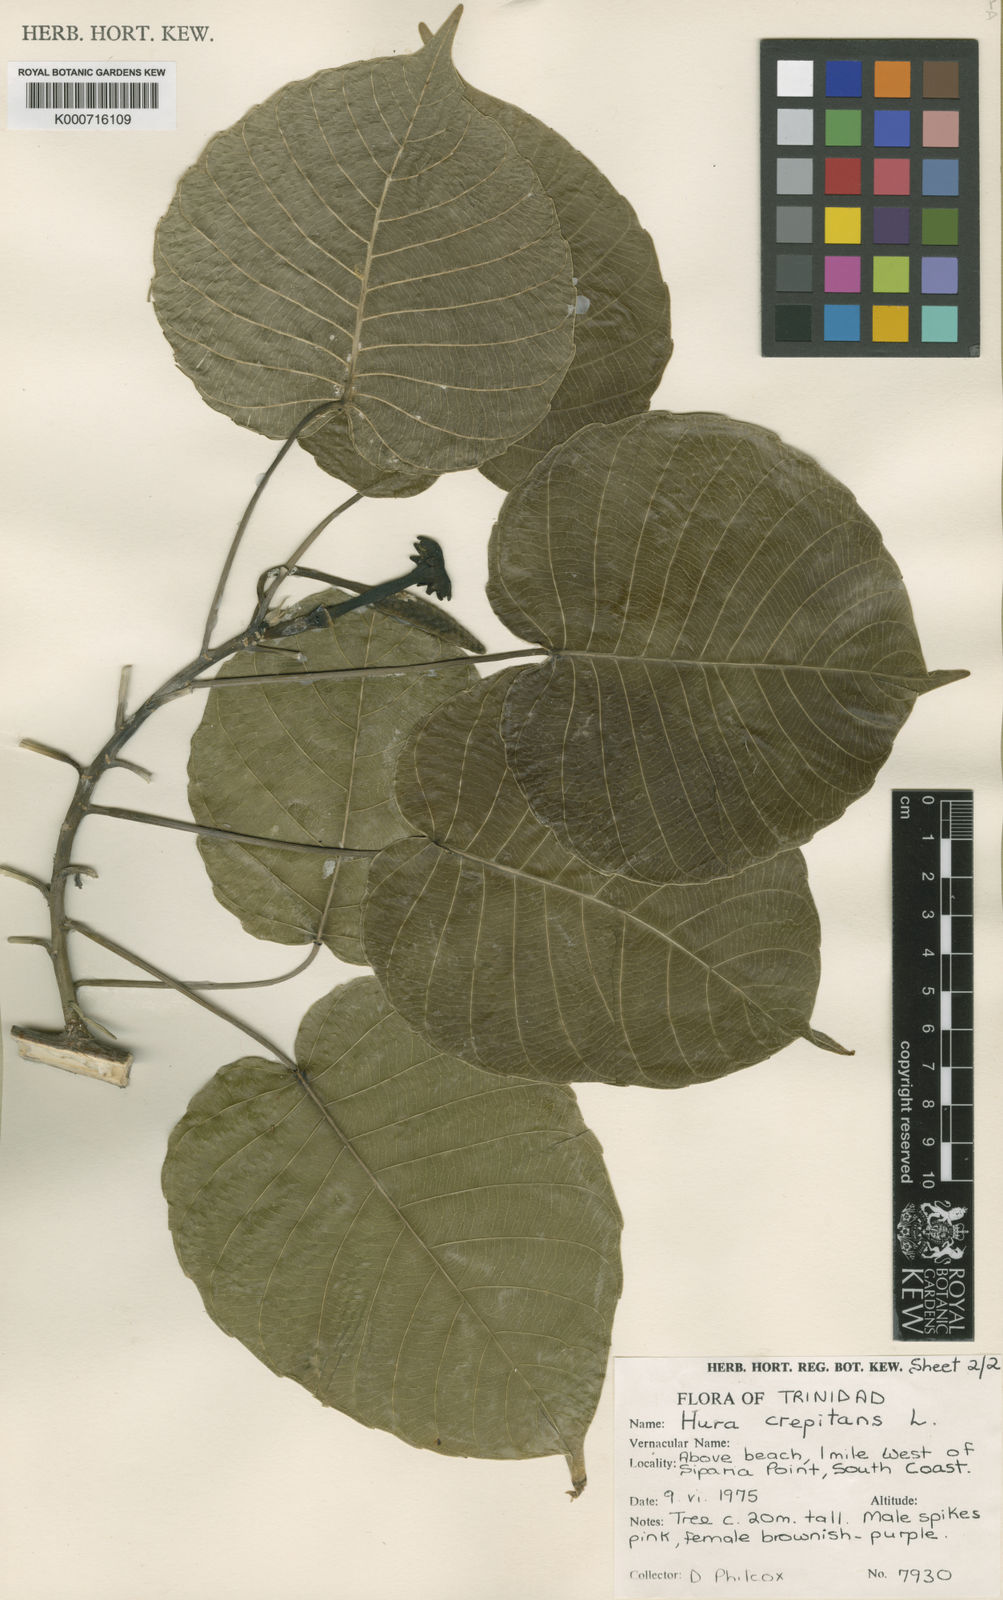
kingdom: Plantae
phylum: Tracheophyta
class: Magnoliopsida
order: Malpighiales
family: Euphorbiaceae
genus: Hura
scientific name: Hura crepitans
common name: Sandboxtree
